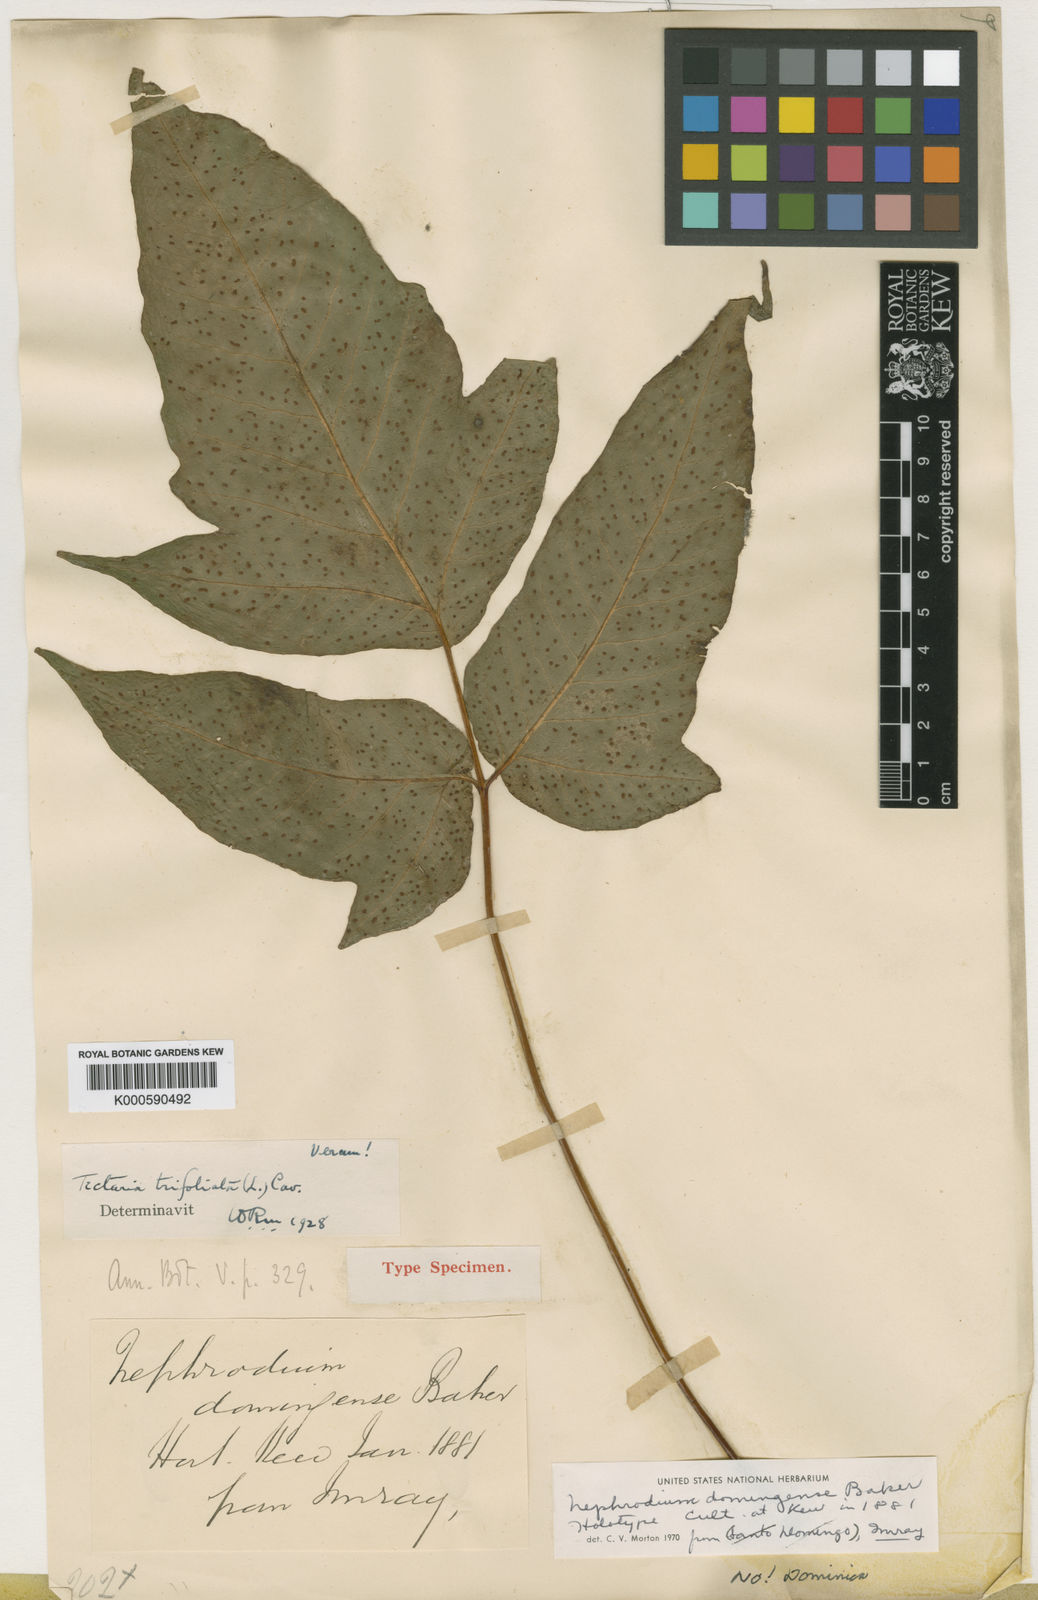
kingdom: Plantae
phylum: Tracheophyta
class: Polypodiopsida
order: Polypodiales
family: Tectariaceae
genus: Tectaria
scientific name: Tectaria trifoliata
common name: Threeleaf halberd fern
